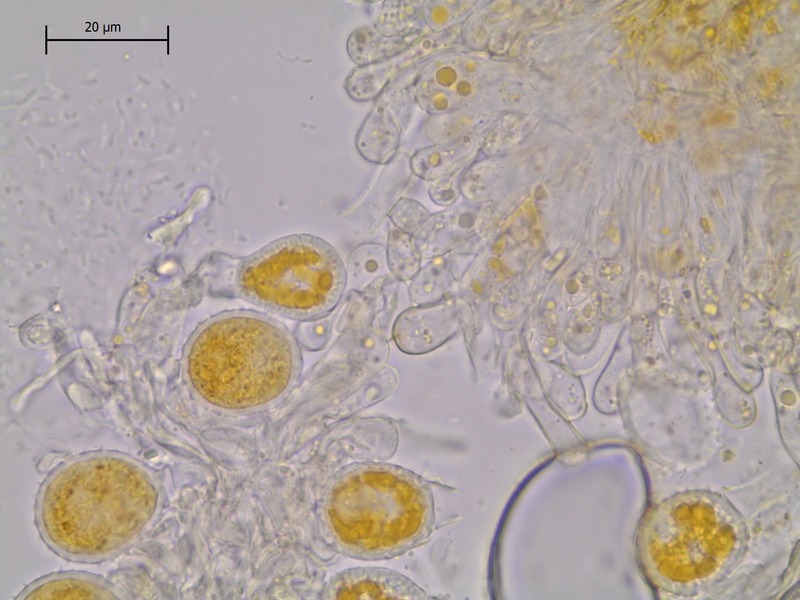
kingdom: Fungi
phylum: Basidiomycota
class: Pucciniomycetes
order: Pucciniales
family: Pucciniaceae
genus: Puccinia
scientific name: Puccinia brachypodii
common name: Rust fungus
